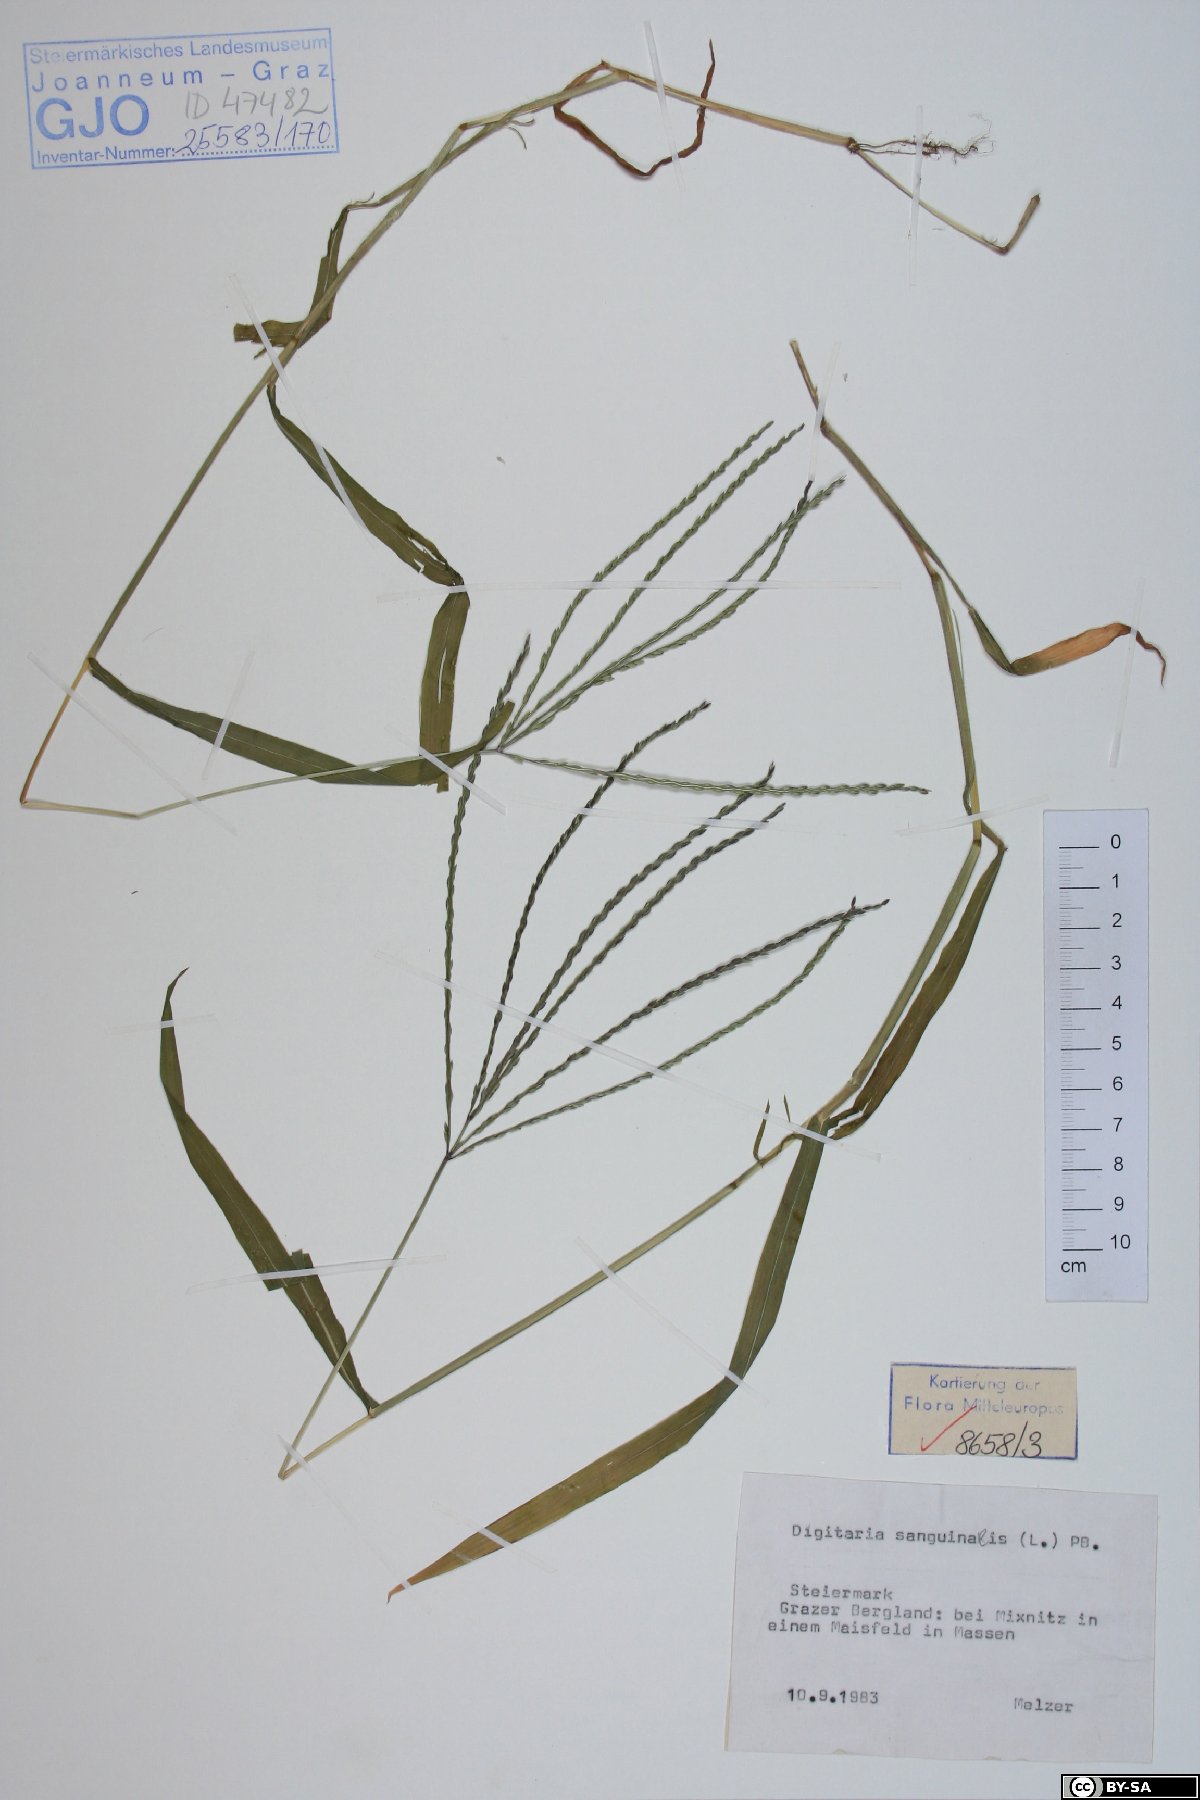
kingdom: Plantae
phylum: Tracheophyta
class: Liliopsida
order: Poales
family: Poaceae
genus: Digitaria
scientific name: Digitaria sanguinalis
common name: Hairy crabgrass
